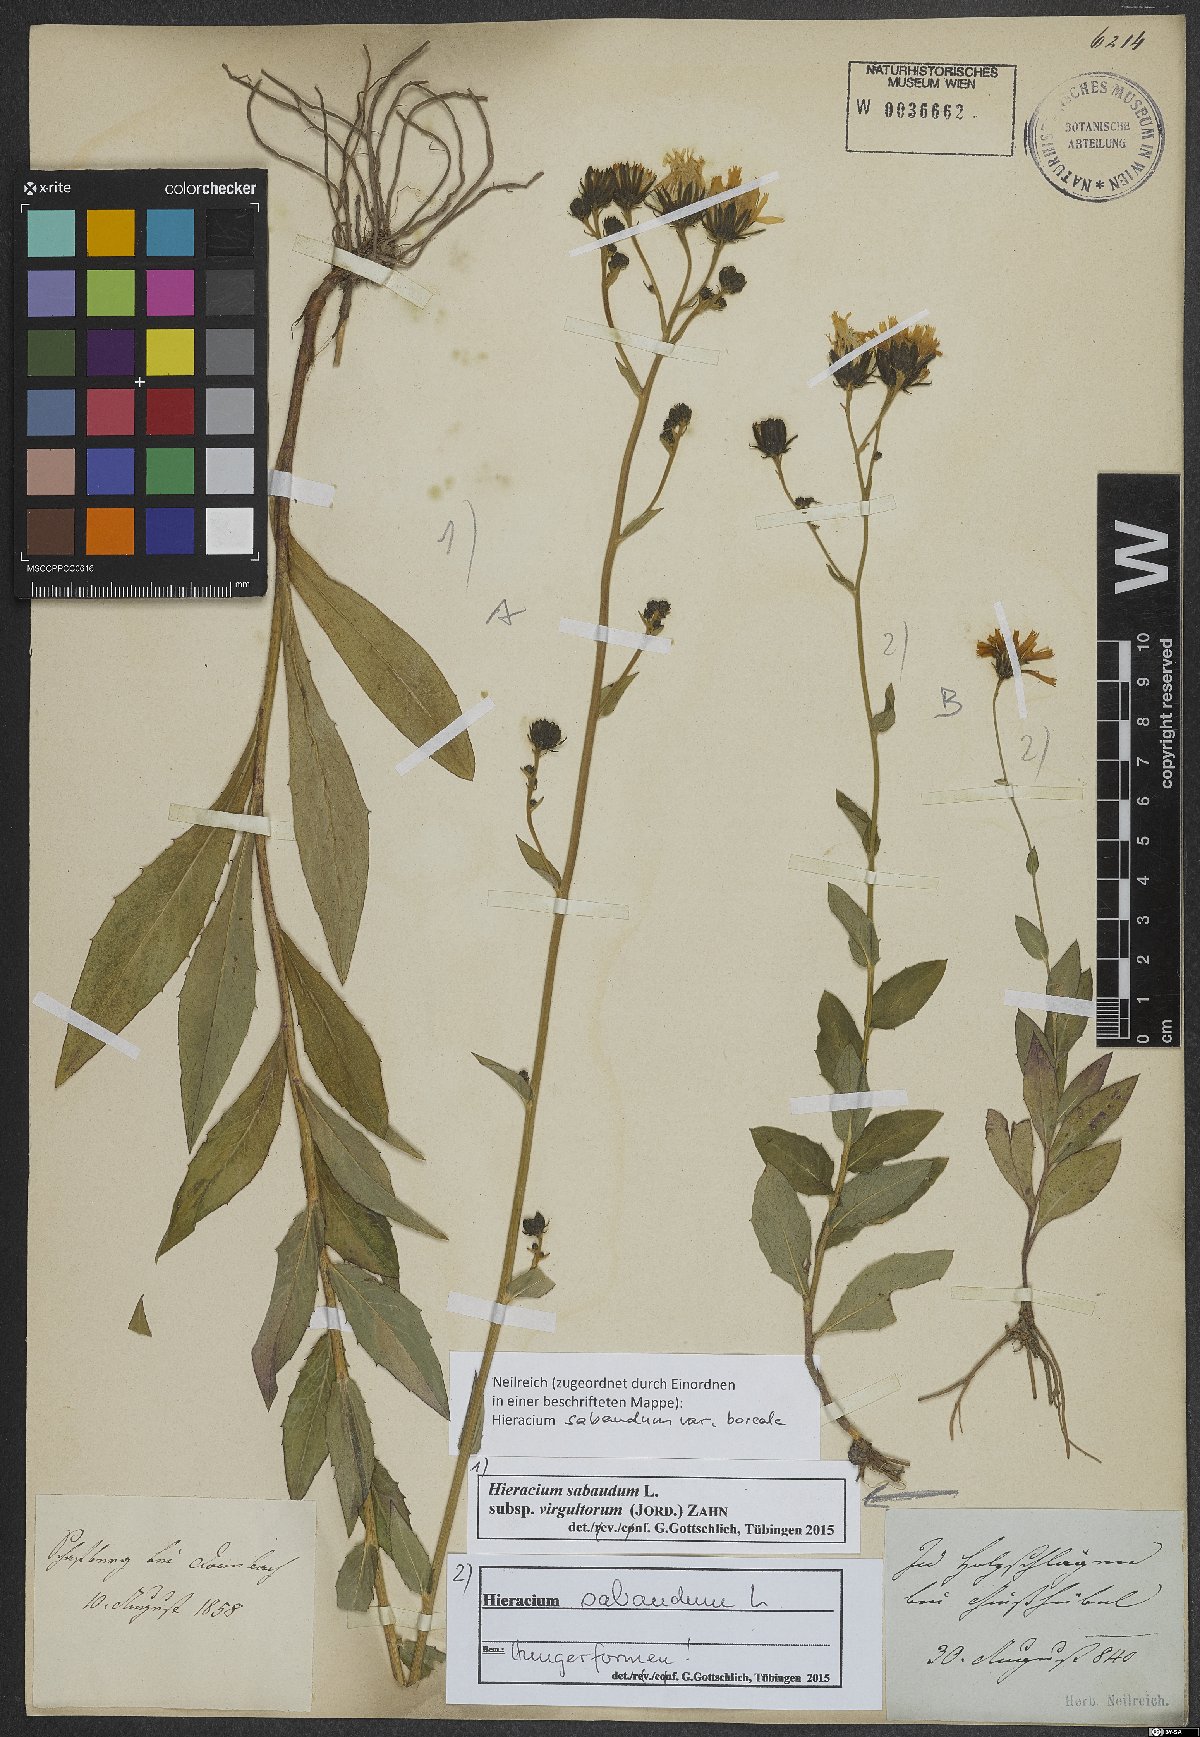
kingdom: Plantae
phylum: Tracheophyta
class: Magnoliopsida
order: Asterales
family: Asteraceae
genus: Hieracium
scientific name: Hieracium sabaudum
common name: New england hawkweed
